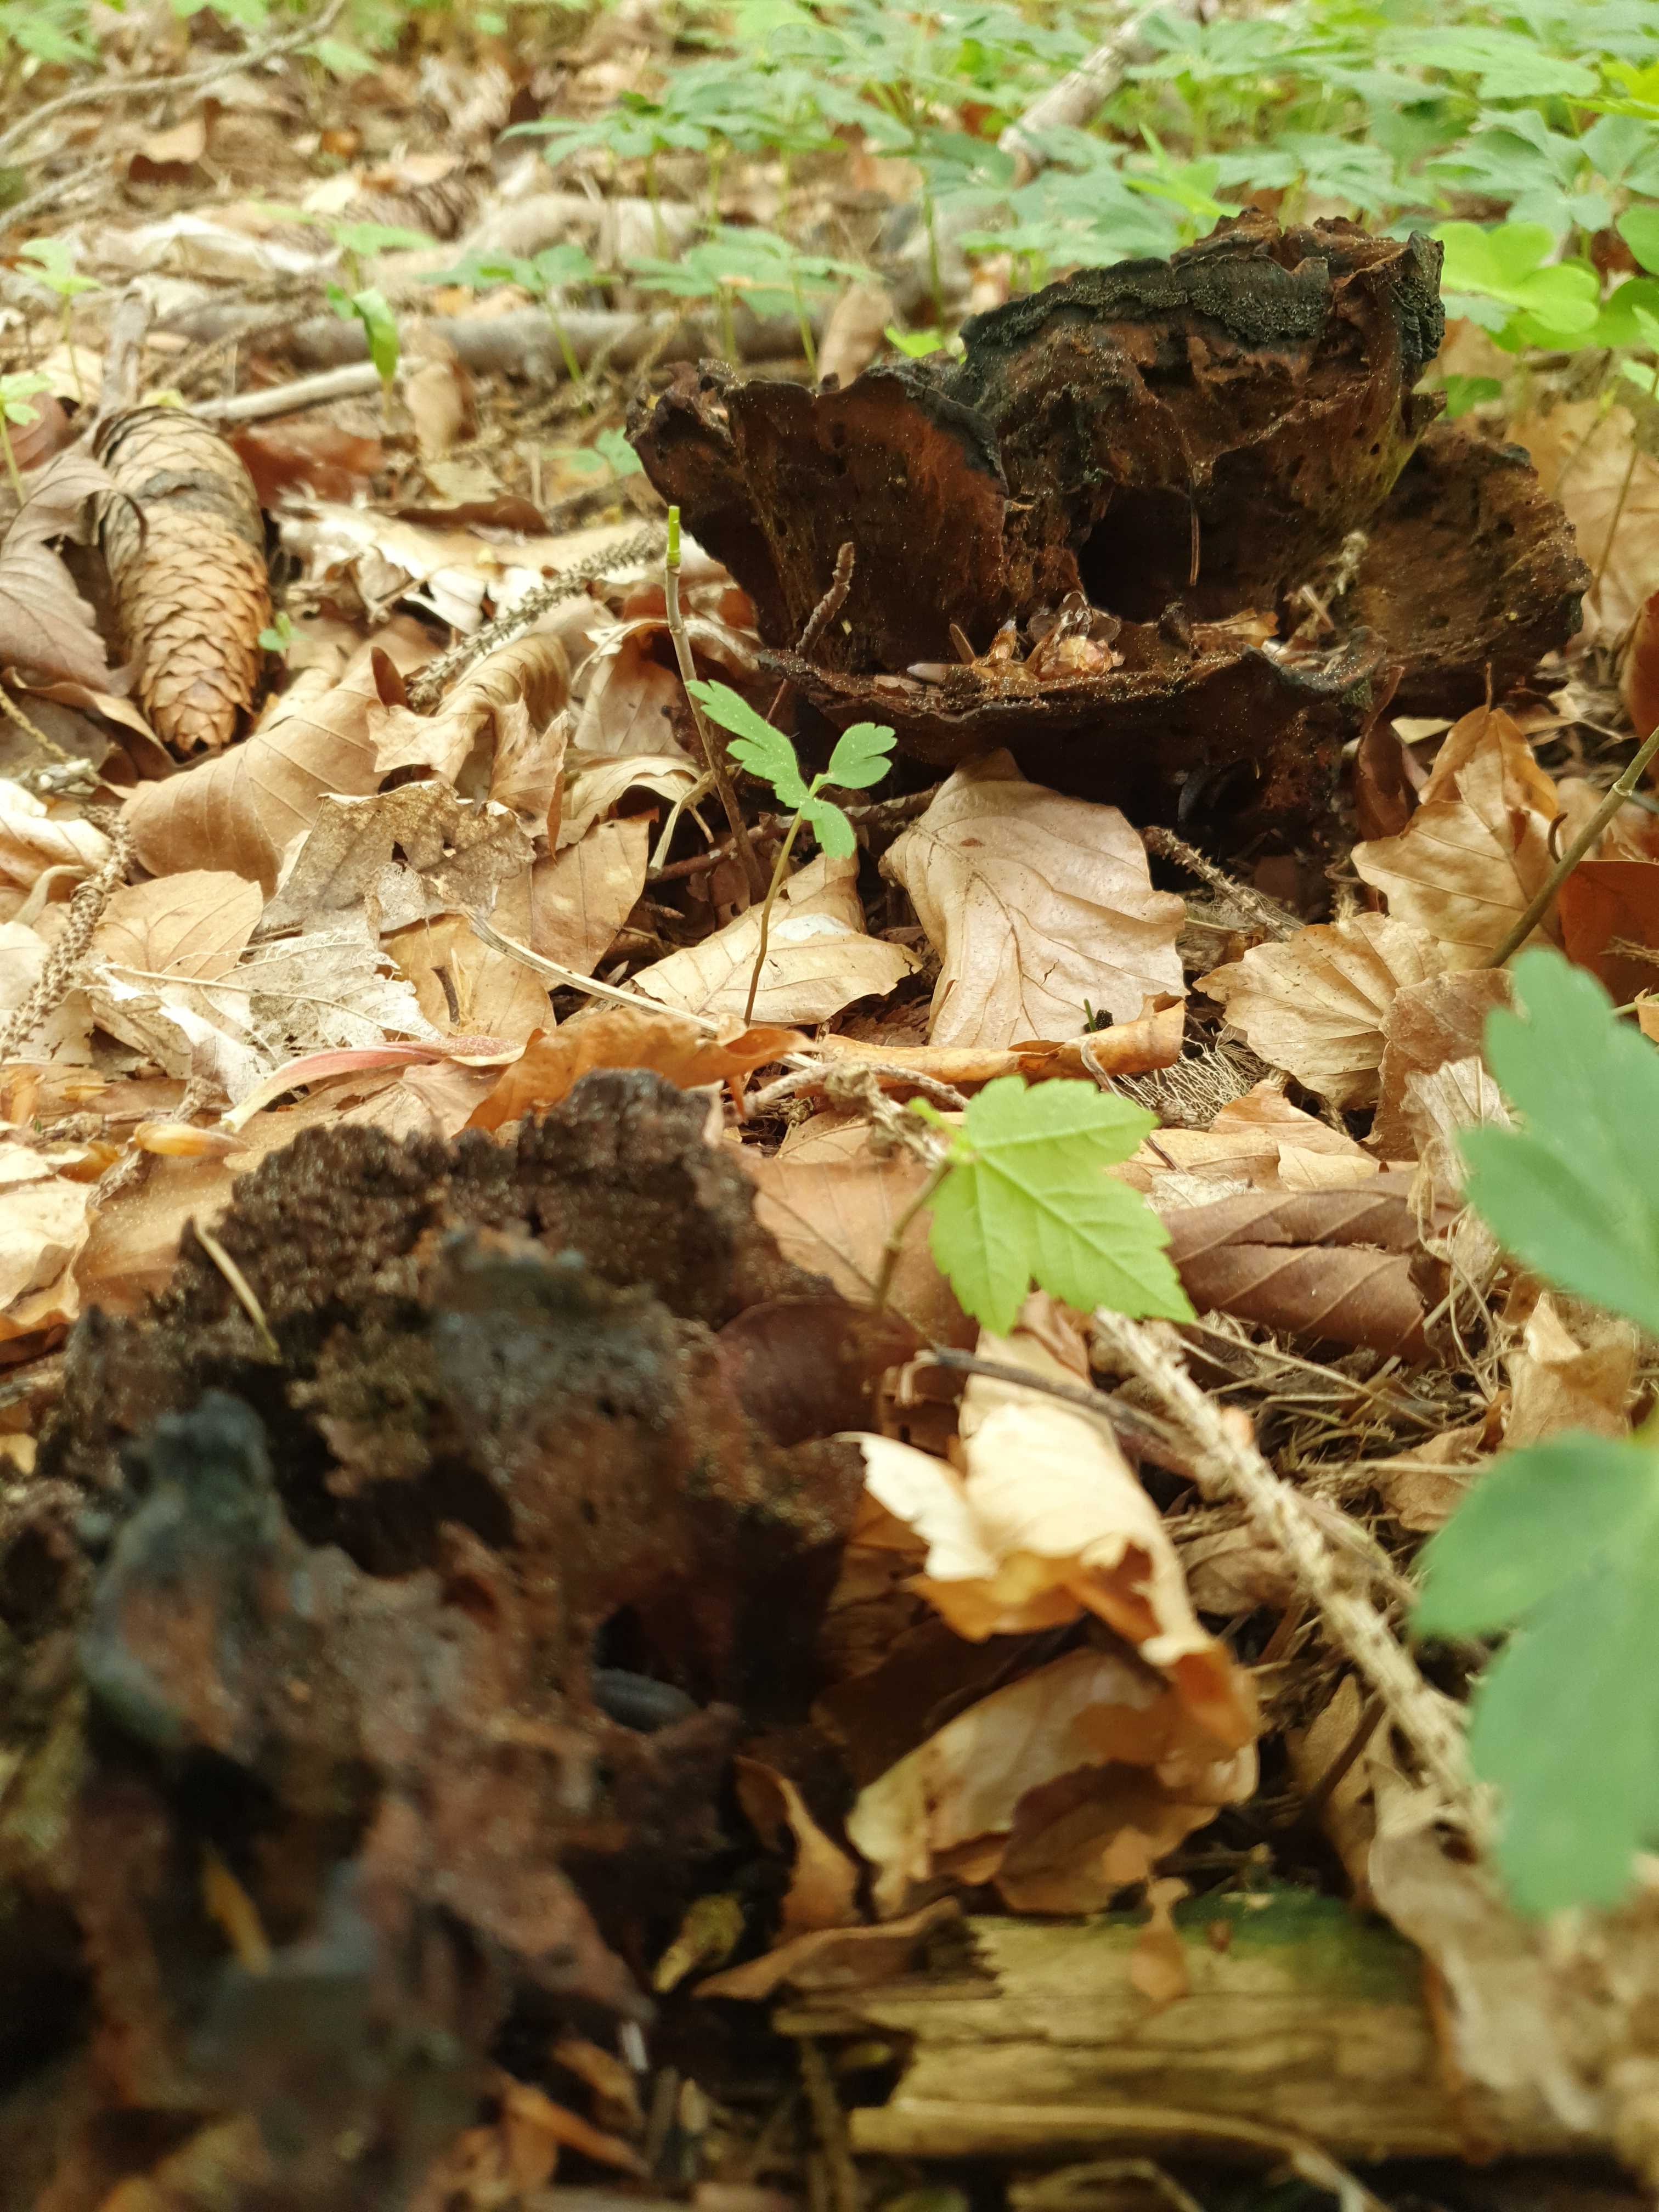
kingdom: Fungi
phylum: Basidiomycota
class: Agaricomycetes
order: Polyporales
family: Laetiporaceae
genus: Phaeolus
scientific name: Phaeolus schweinitzii
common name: brunporesvamp
